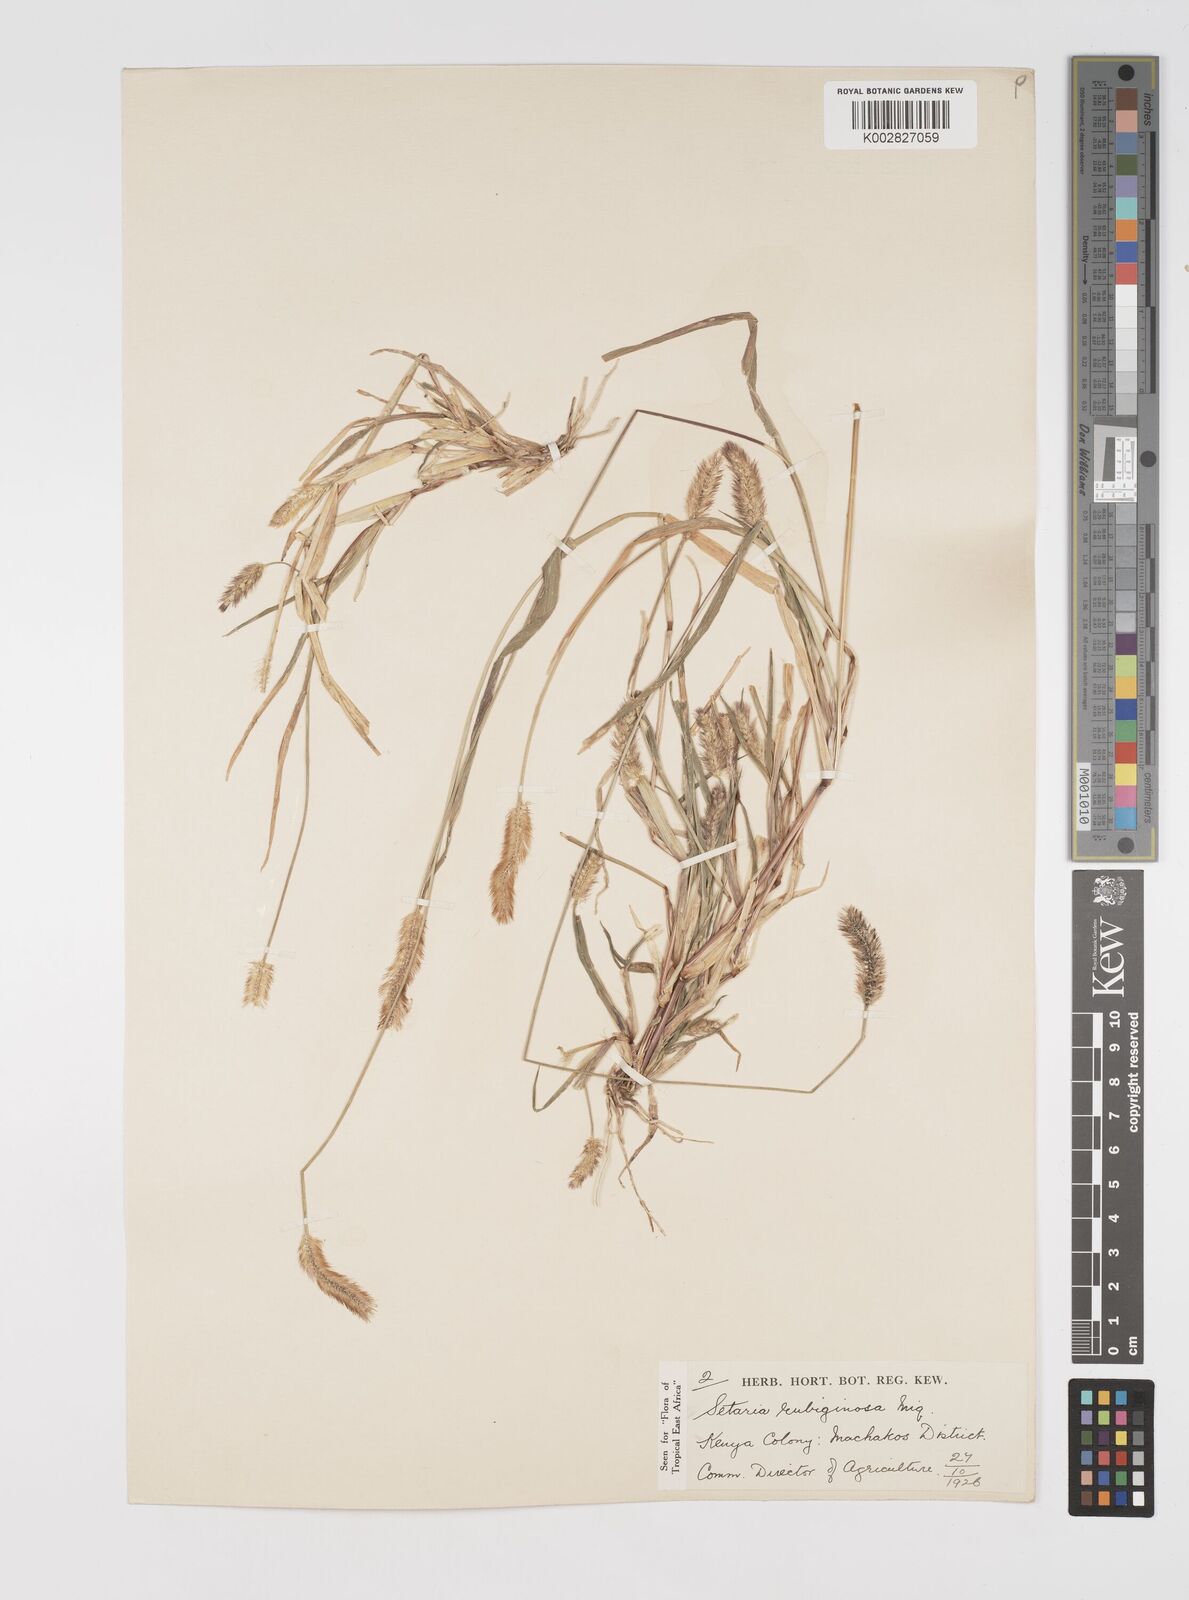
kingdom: Plantae
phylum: Tracheophyta
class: Liliopsida
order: Poales
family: Poaceae
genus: Setaria
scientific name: Setaria pumila
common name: Yellow bristle-grass
